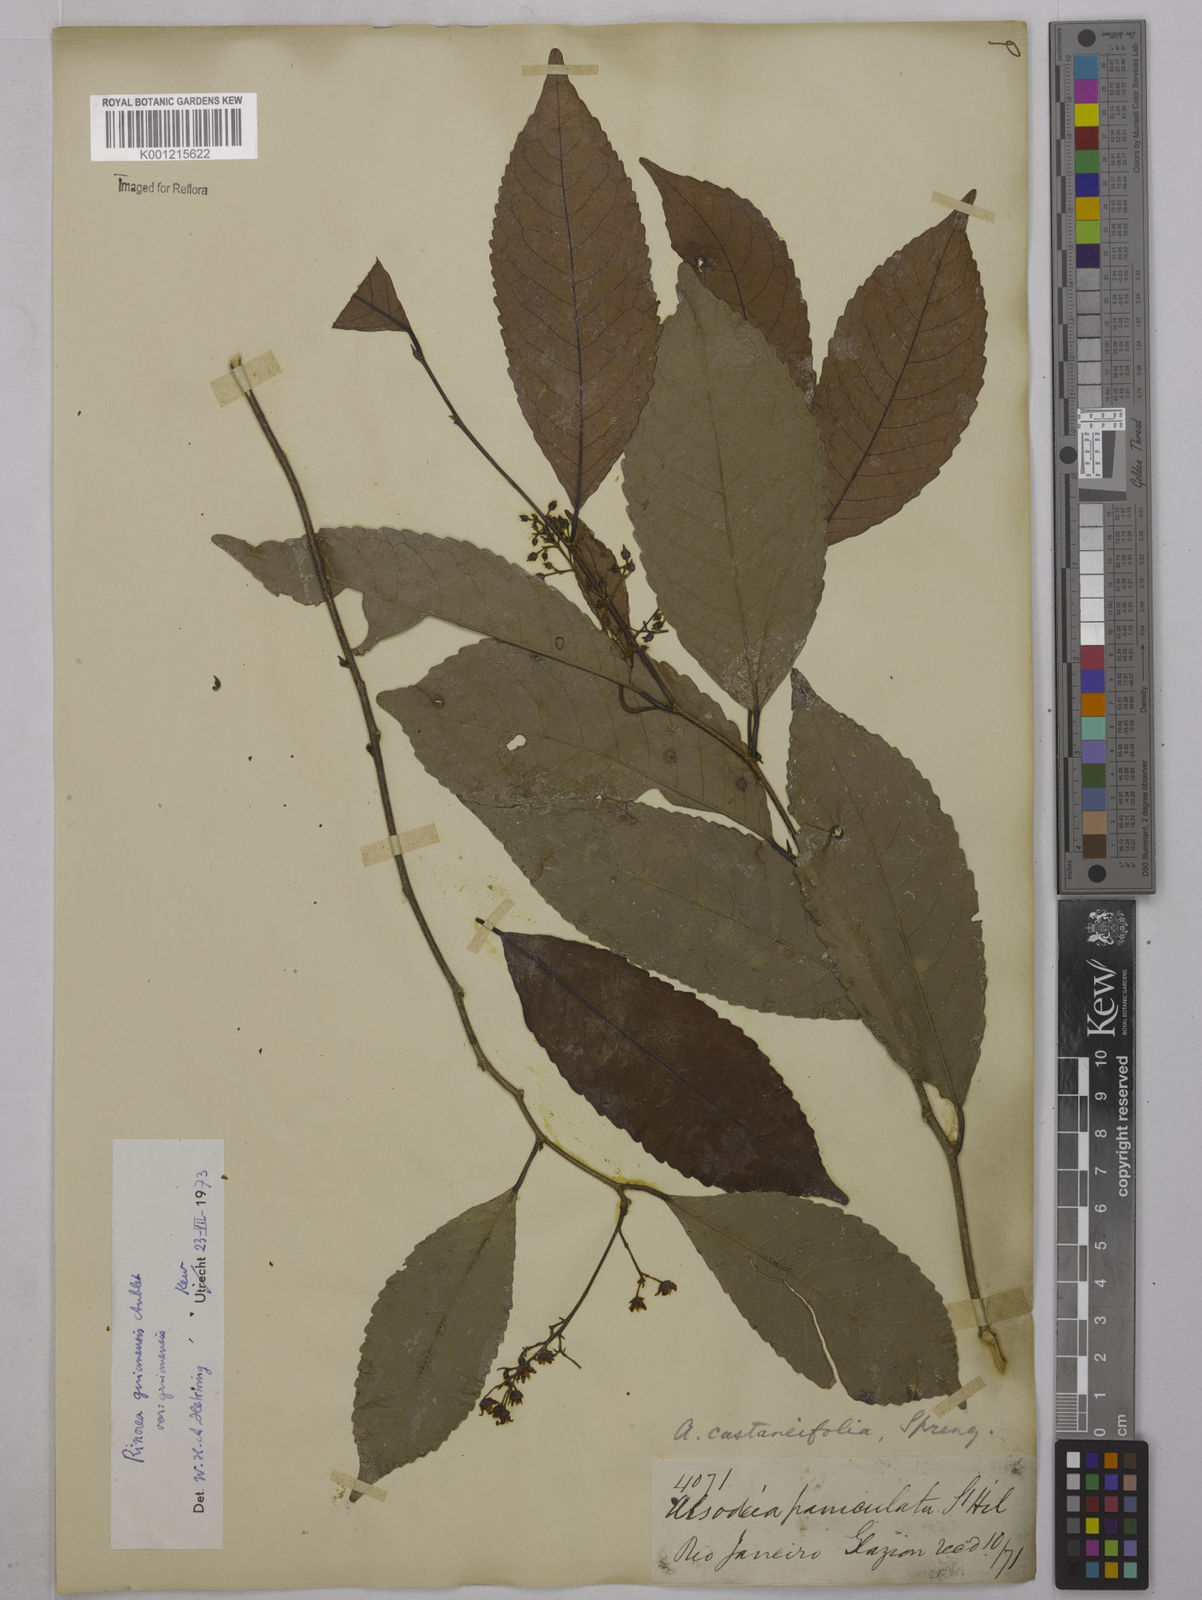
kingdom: Plantae
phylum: Tracheophyta
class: Magnoliopsida
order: Malpighiales
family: Violaceae
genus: Rinorea
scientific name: Rinorea guianensis
